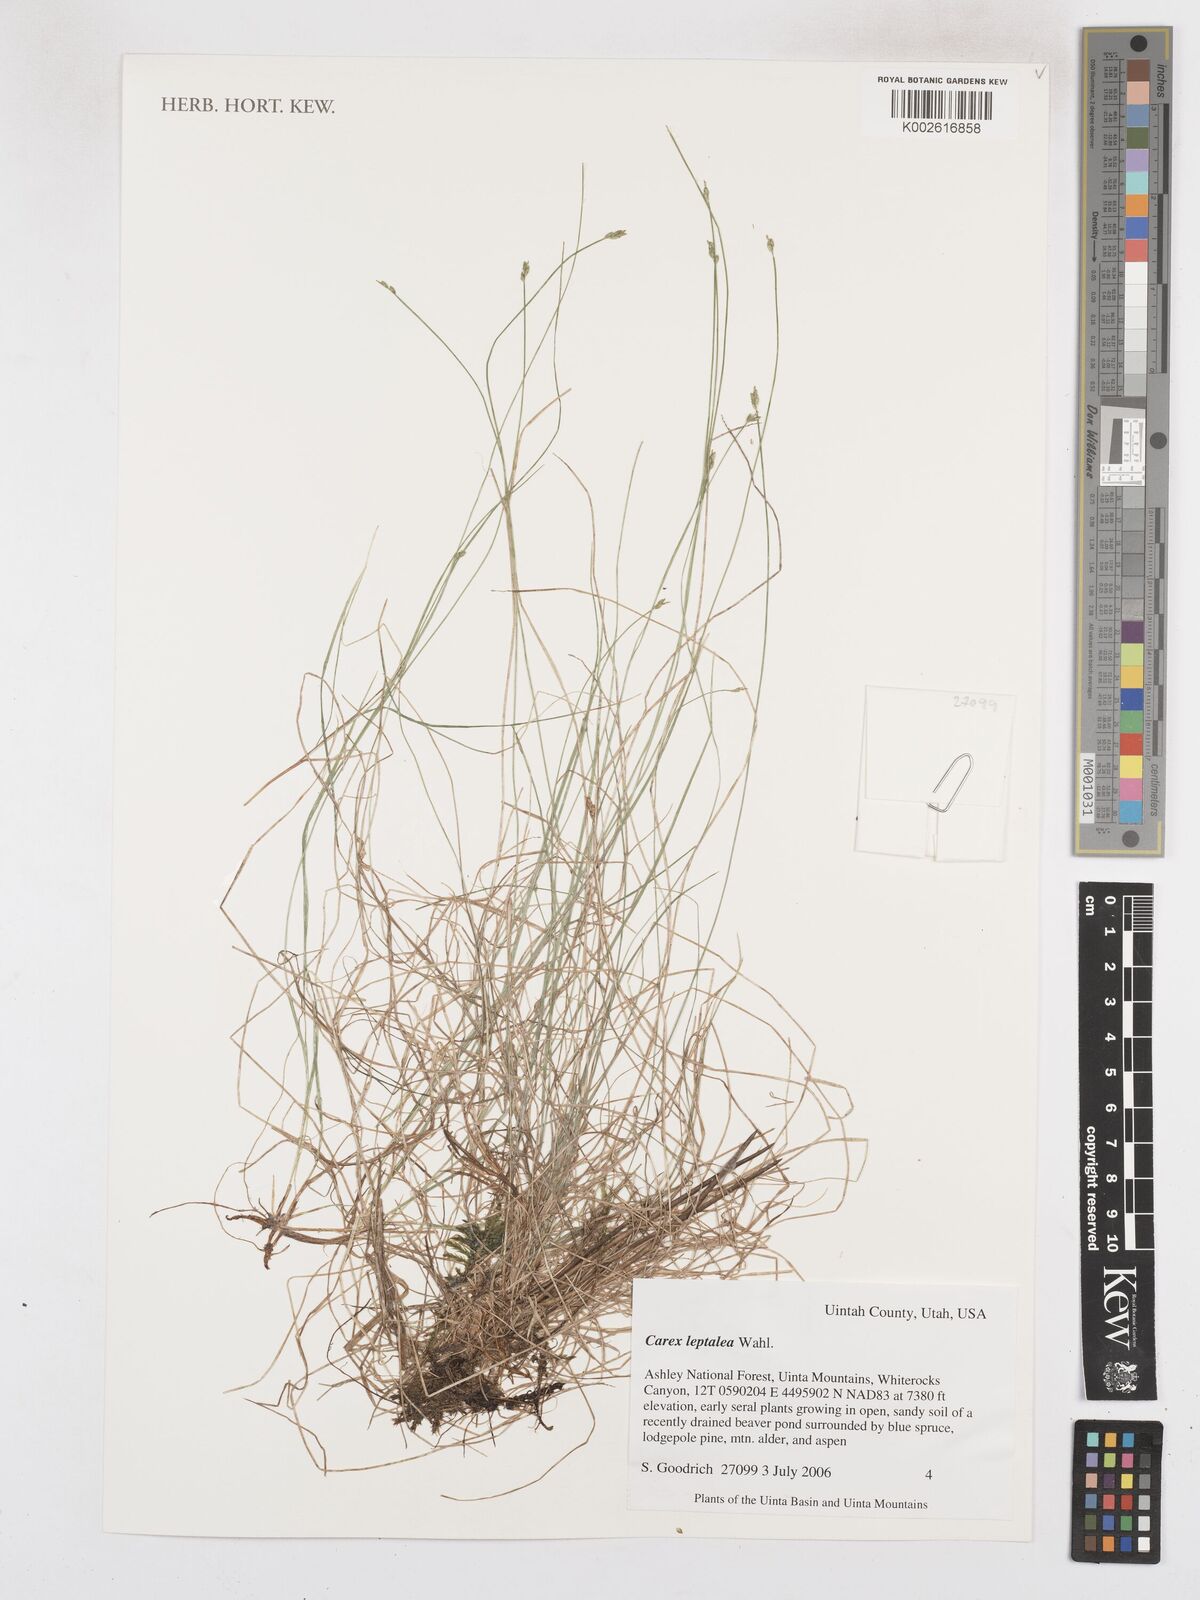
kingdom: Plantae
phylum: Tracheophyta
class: Liliopsida
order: Poales
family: Cyperaceae
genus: Carex
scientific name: Carex leptalea
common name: Bristly-stalked sedge
